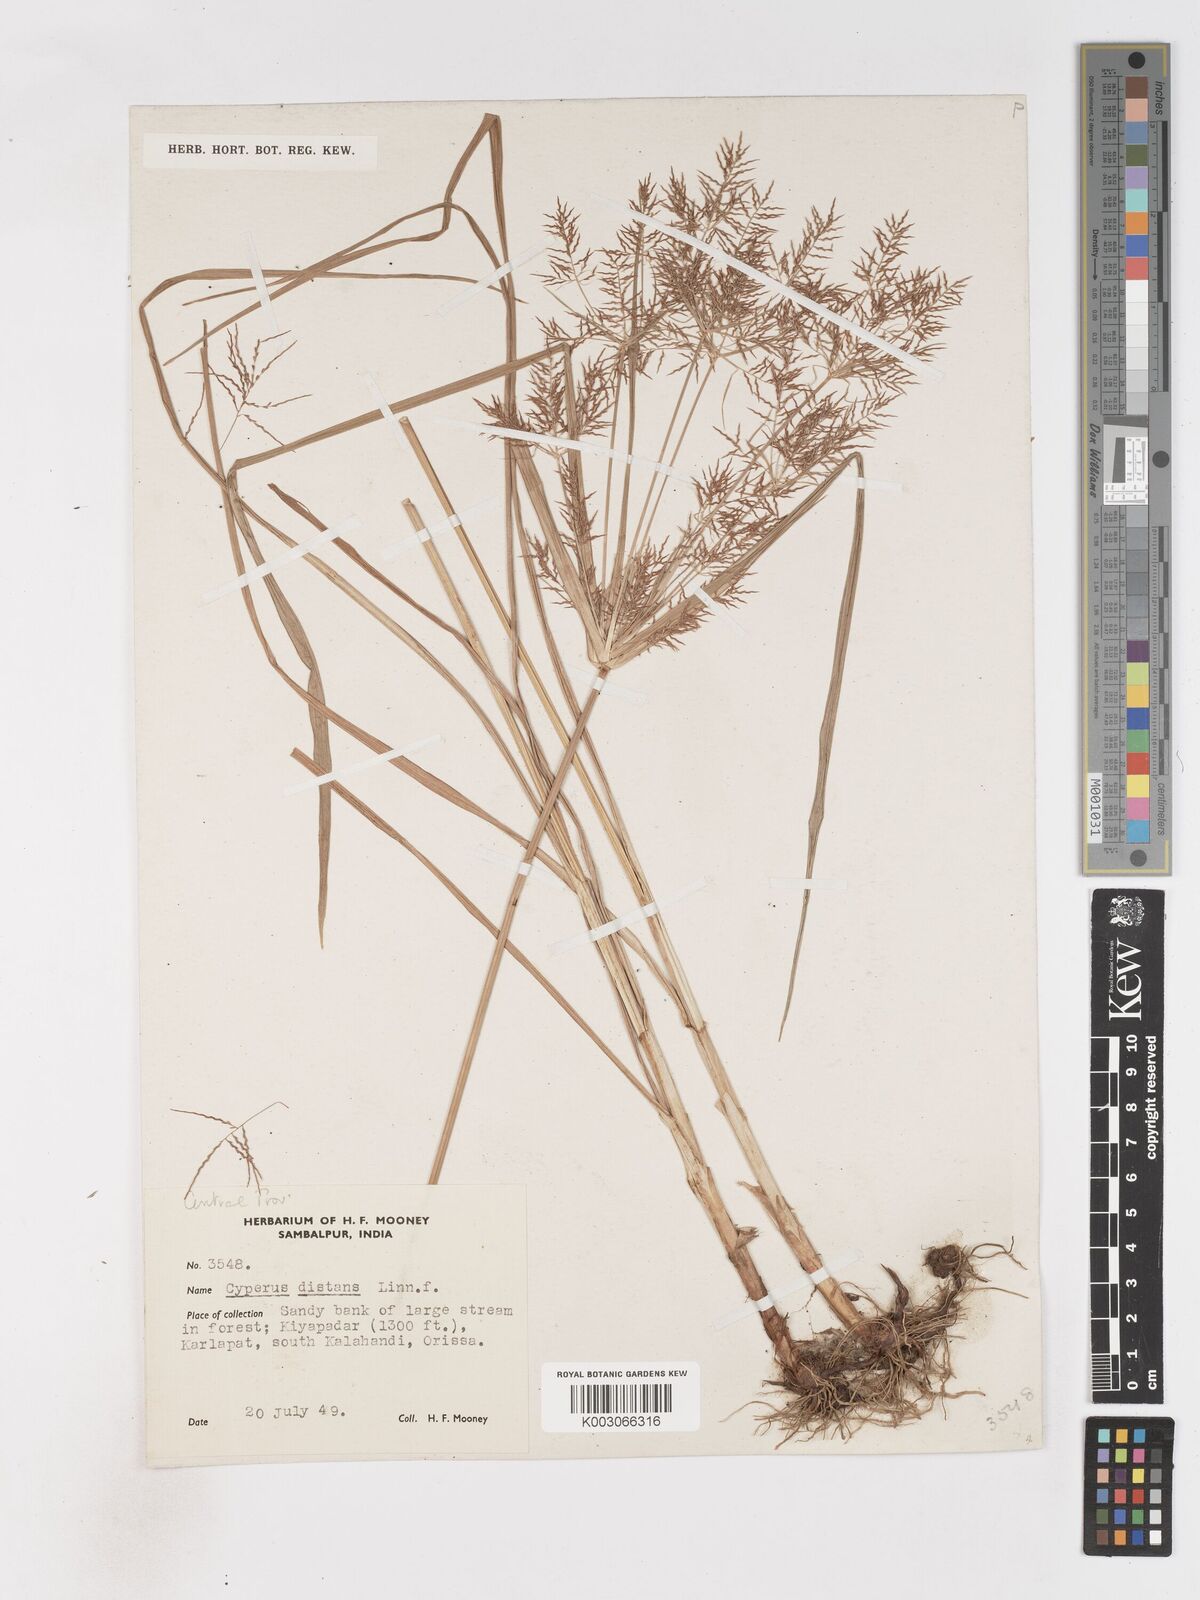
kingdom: Plantae
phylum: Tracheophyta
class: Liliopsida
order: Poales
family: Cyperaceae
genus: Cyperus
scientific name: Cyperus distans
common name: Slender cyperus
